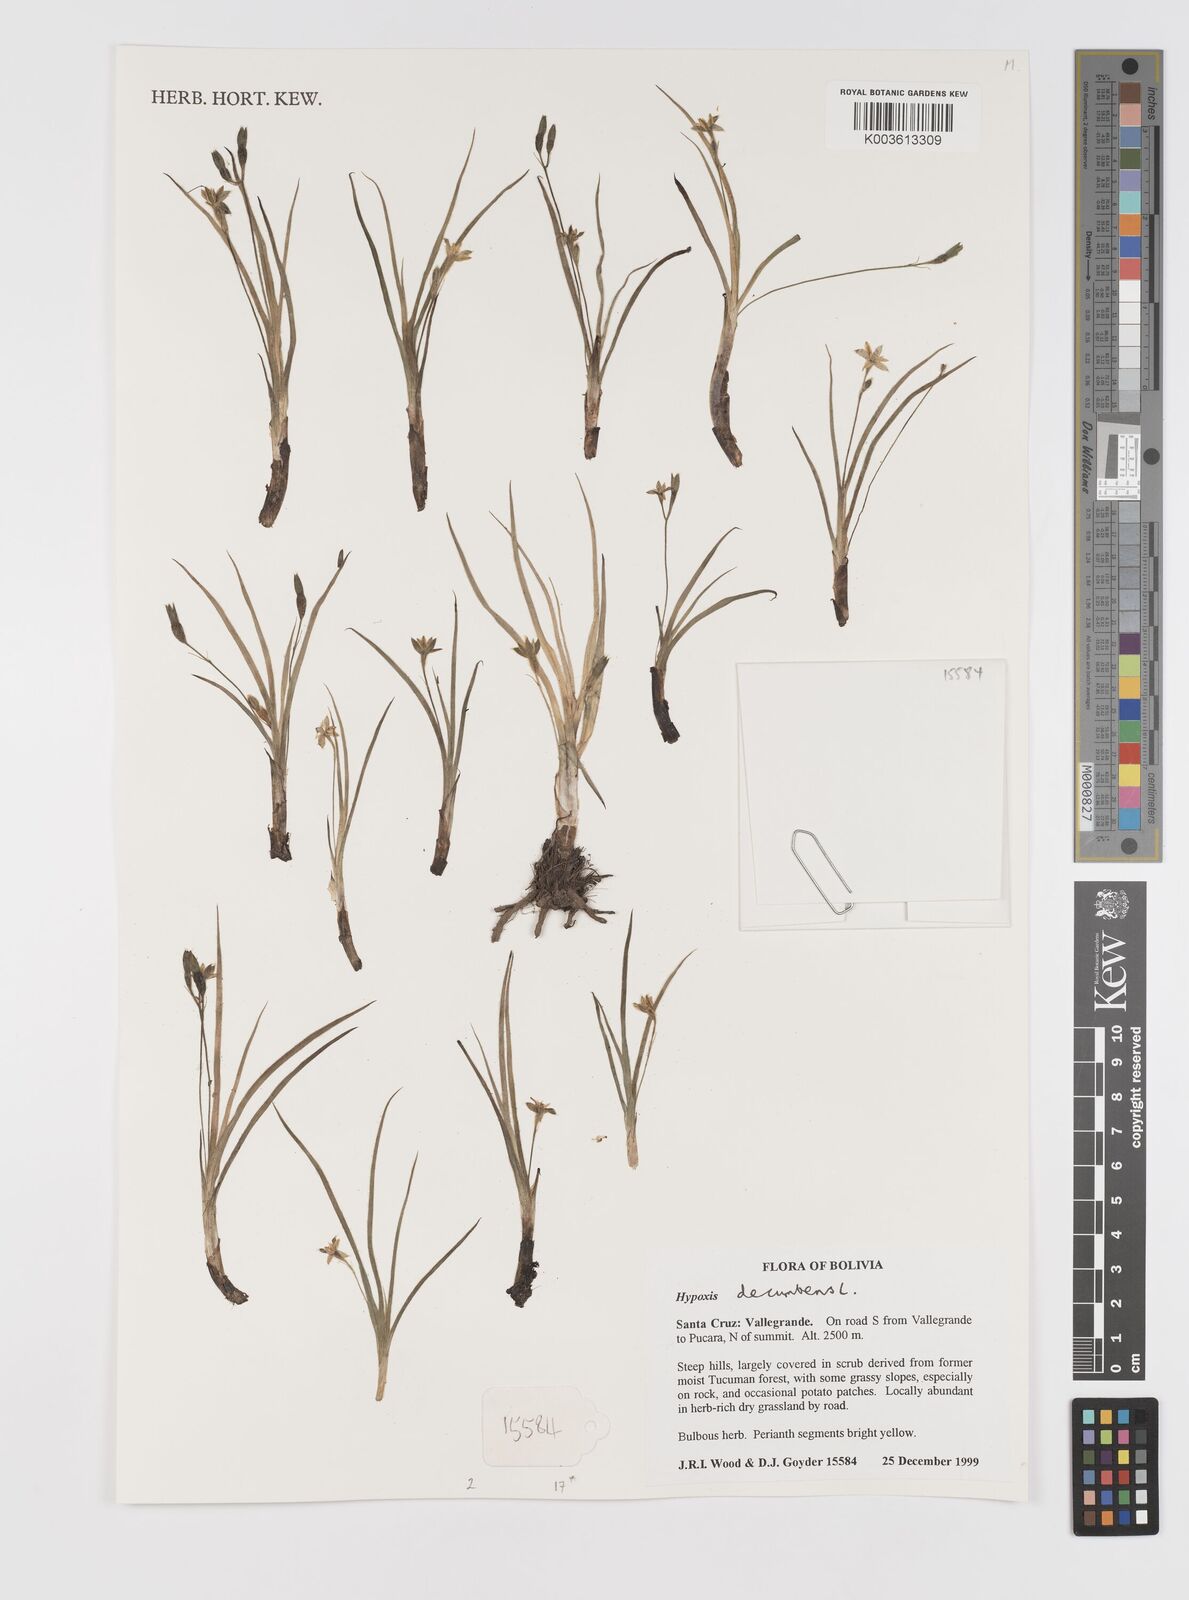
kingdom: Plantae
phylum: Tracheophyta
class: Liliopsida
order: Asparagales
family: Hypoxidaceae
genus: Hypoxis
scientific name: Hypoxis decumbens
